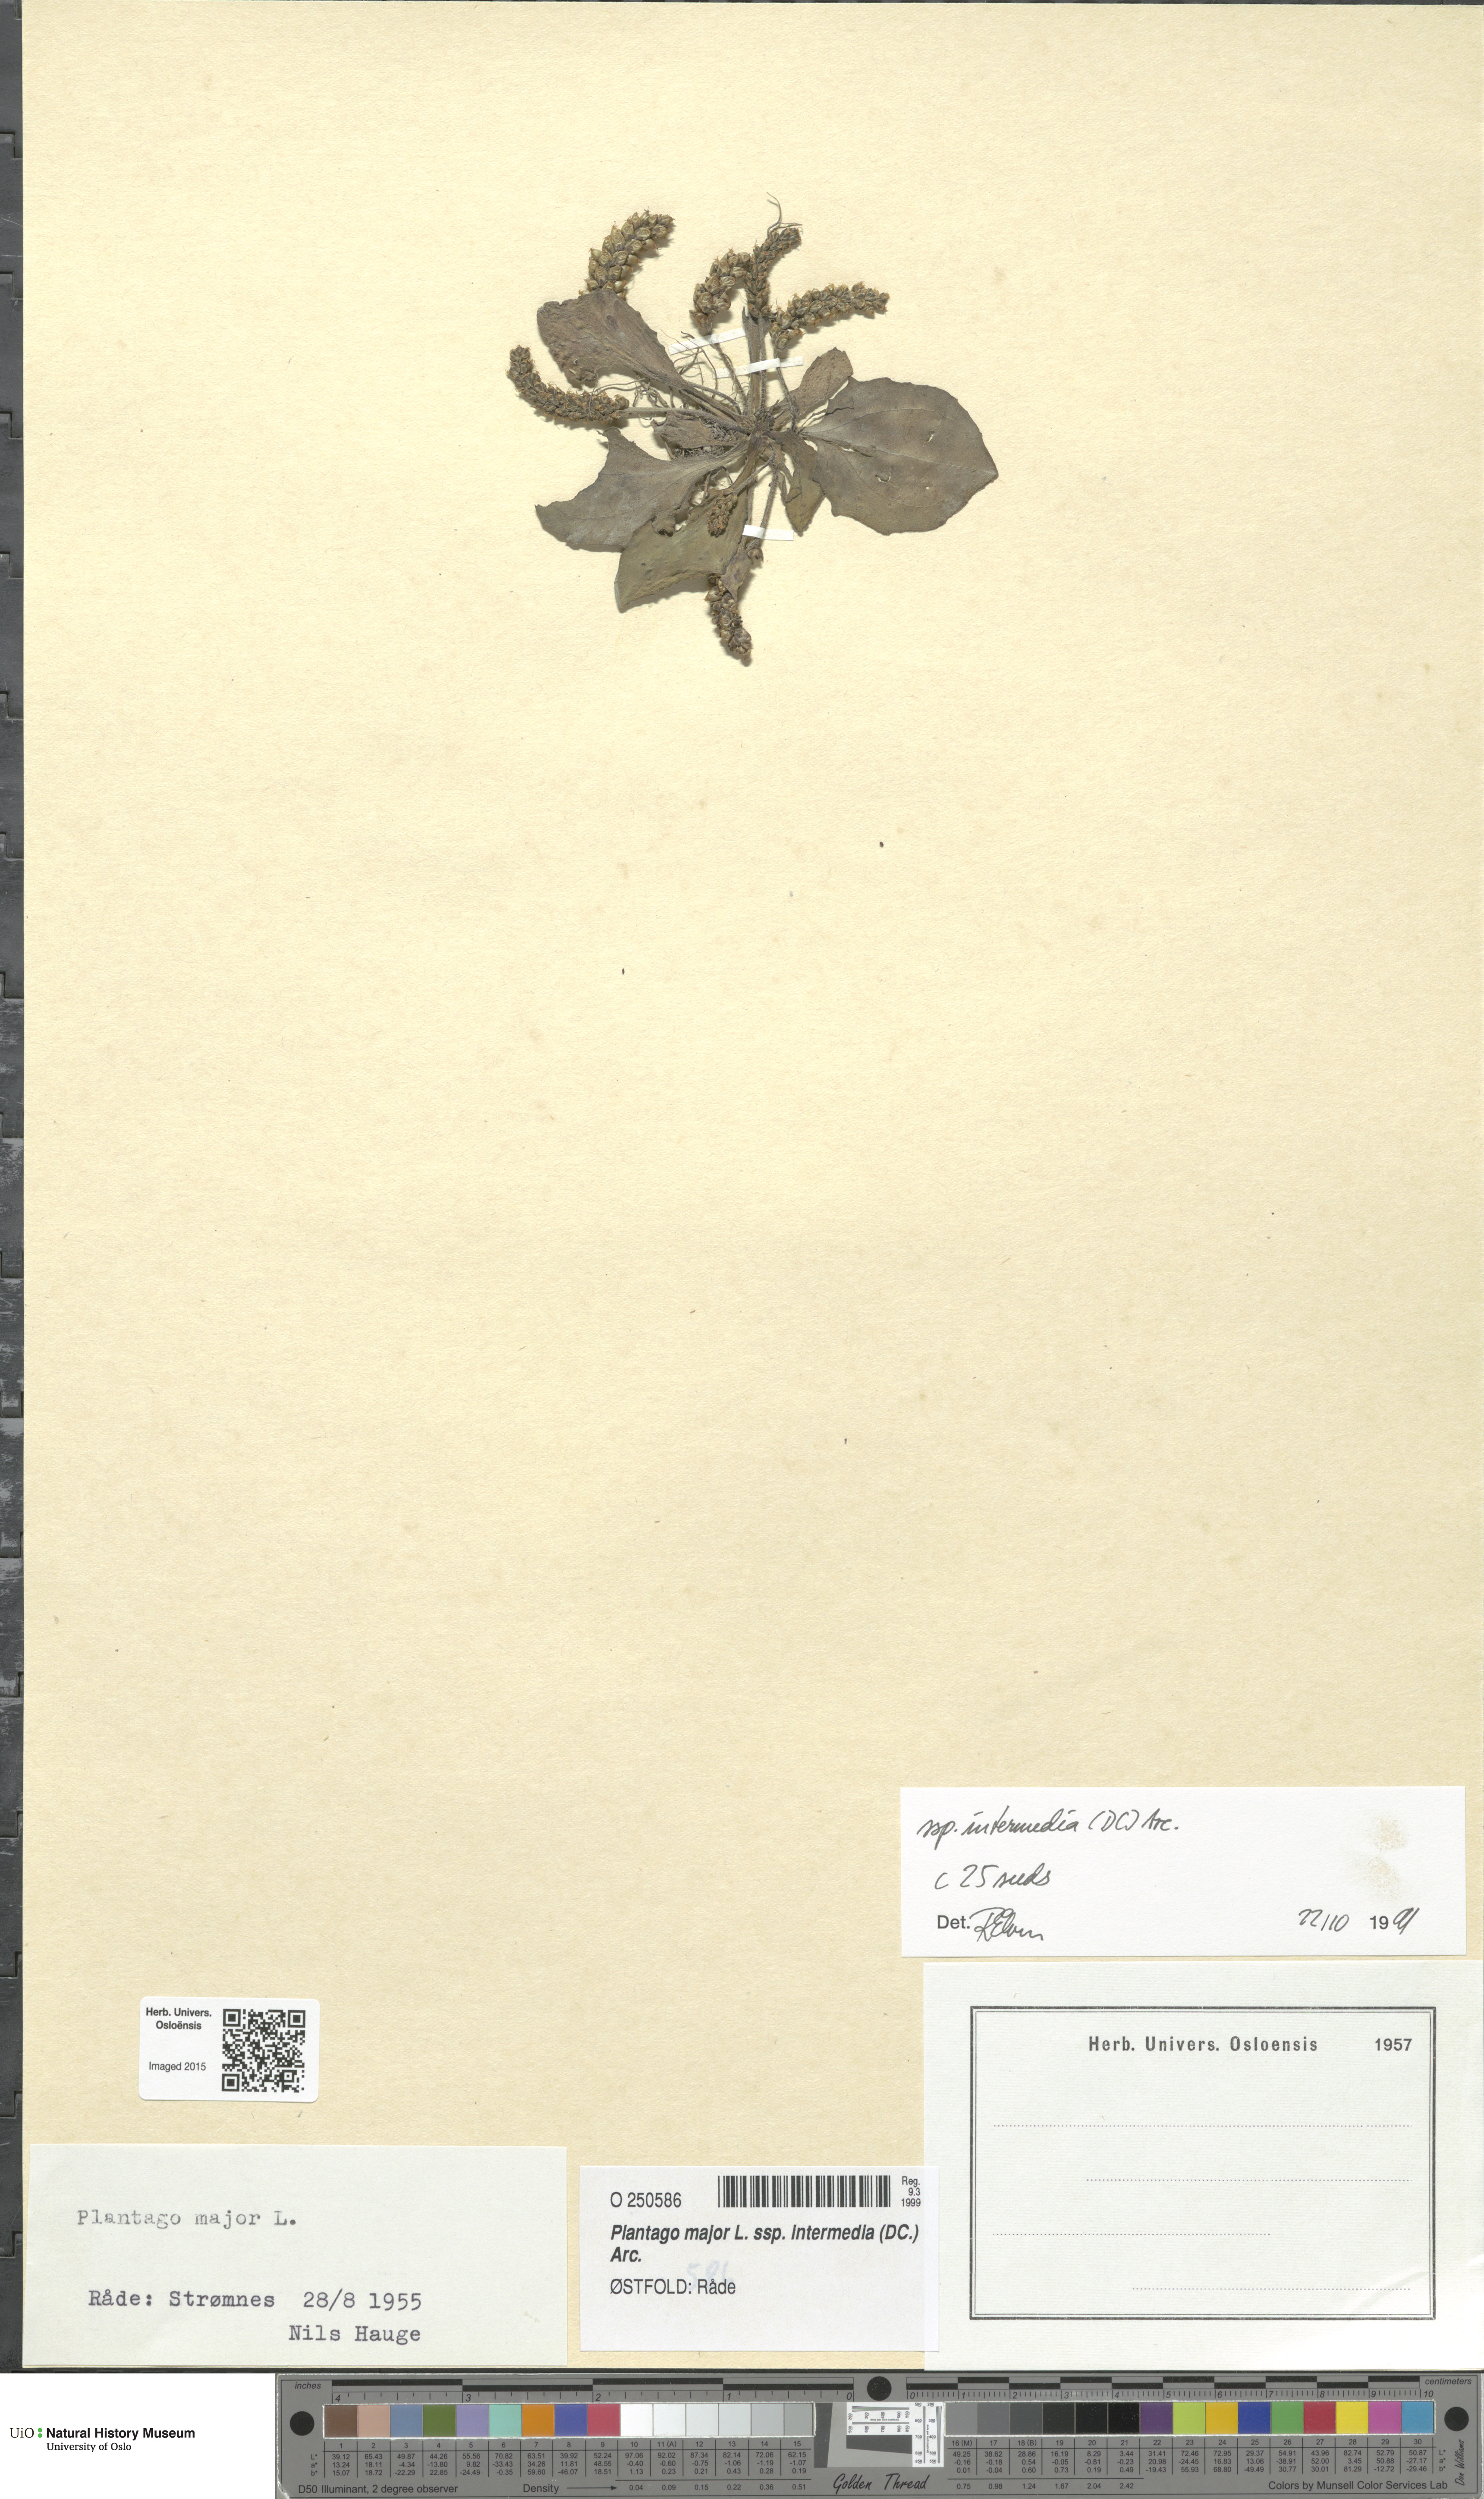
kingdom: Plantae
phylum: Tracheophyta
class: Magnoliopsida
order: Lamiales
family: Plantaginaceae
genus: Plantago
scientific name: Plantago uliginosa
